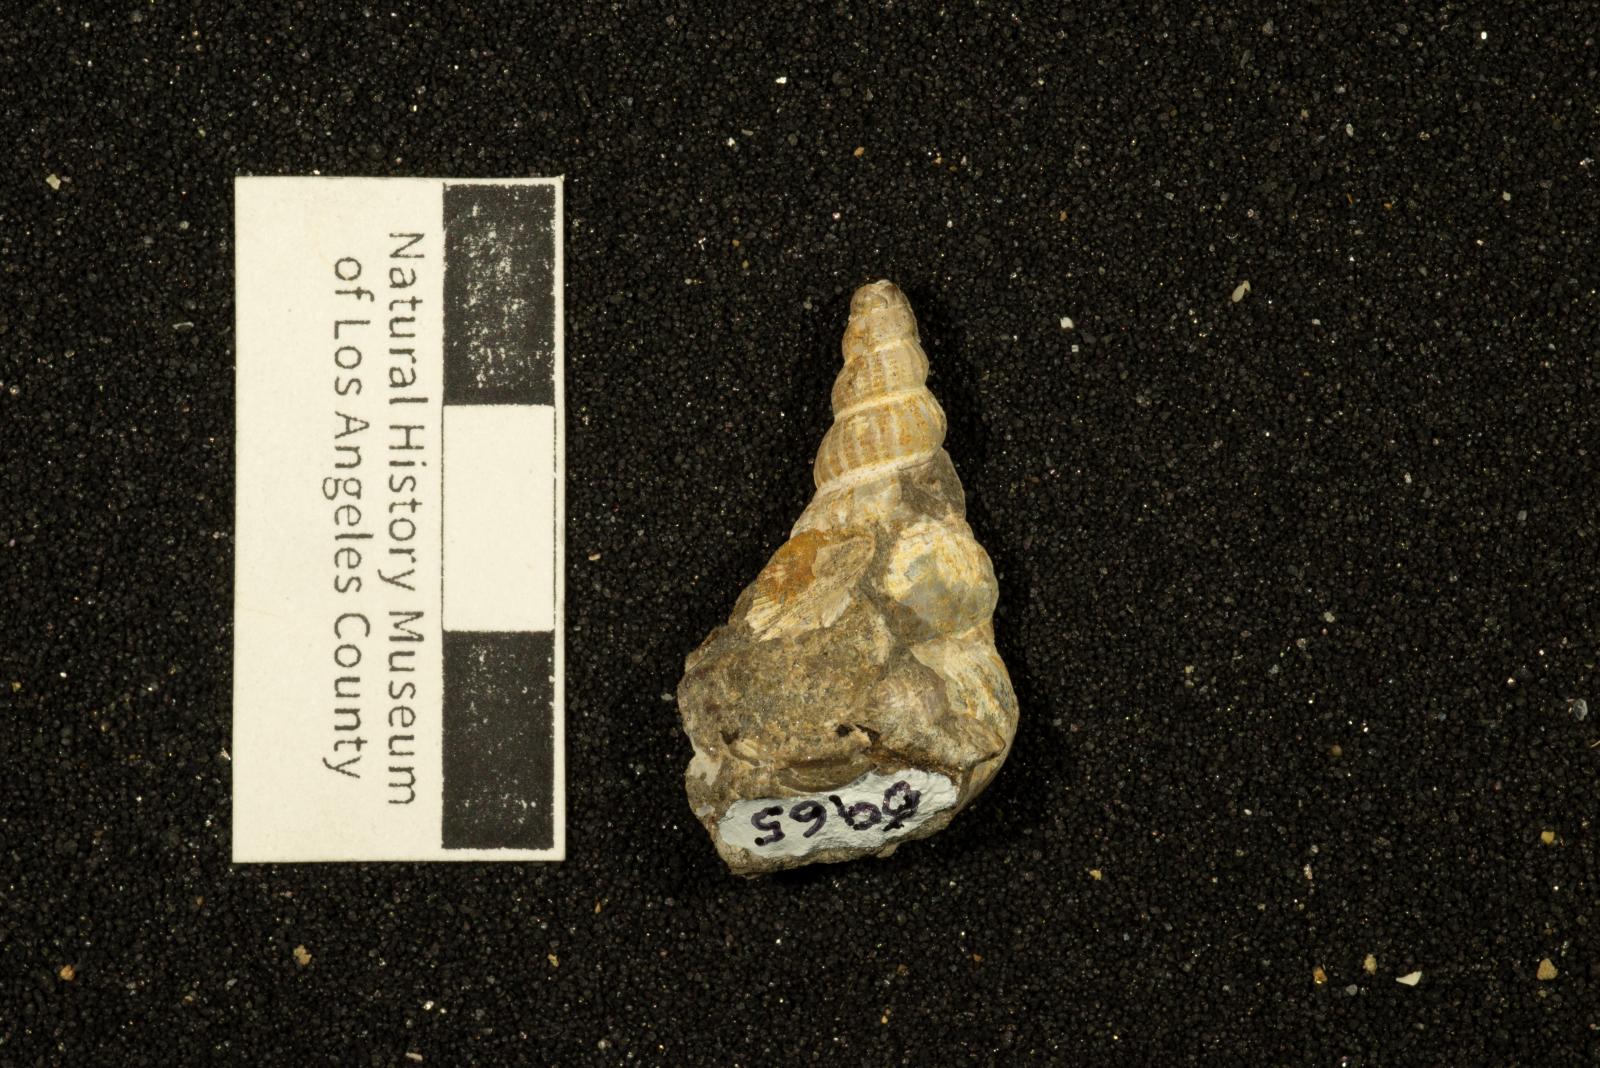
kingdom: Animalia
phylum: Mollusca
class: Gastropoda
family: Epitoniidae
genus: Acirsa
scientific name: Acirsa Ceratia nexilia
